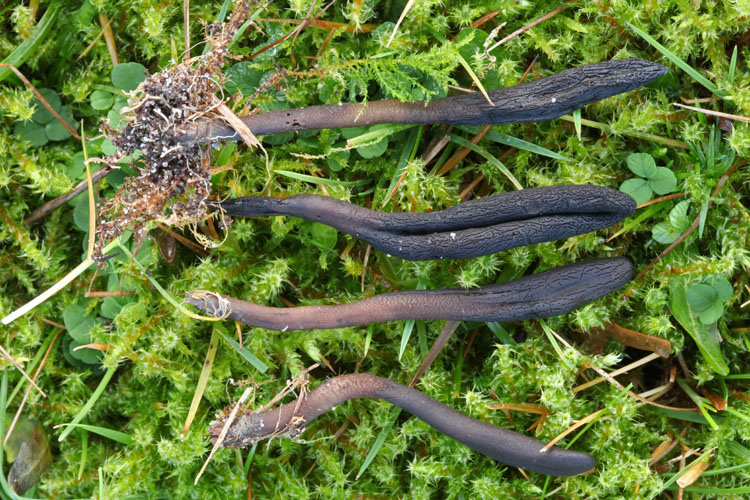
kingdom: Fungi
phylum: Ascomycota
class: Geoglossomycetes
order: Geoglossales
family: Geoglossaceae
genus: Hemileucoglossum
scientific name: Hemileucoglossum elongatum
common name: småsporet jordtunge
